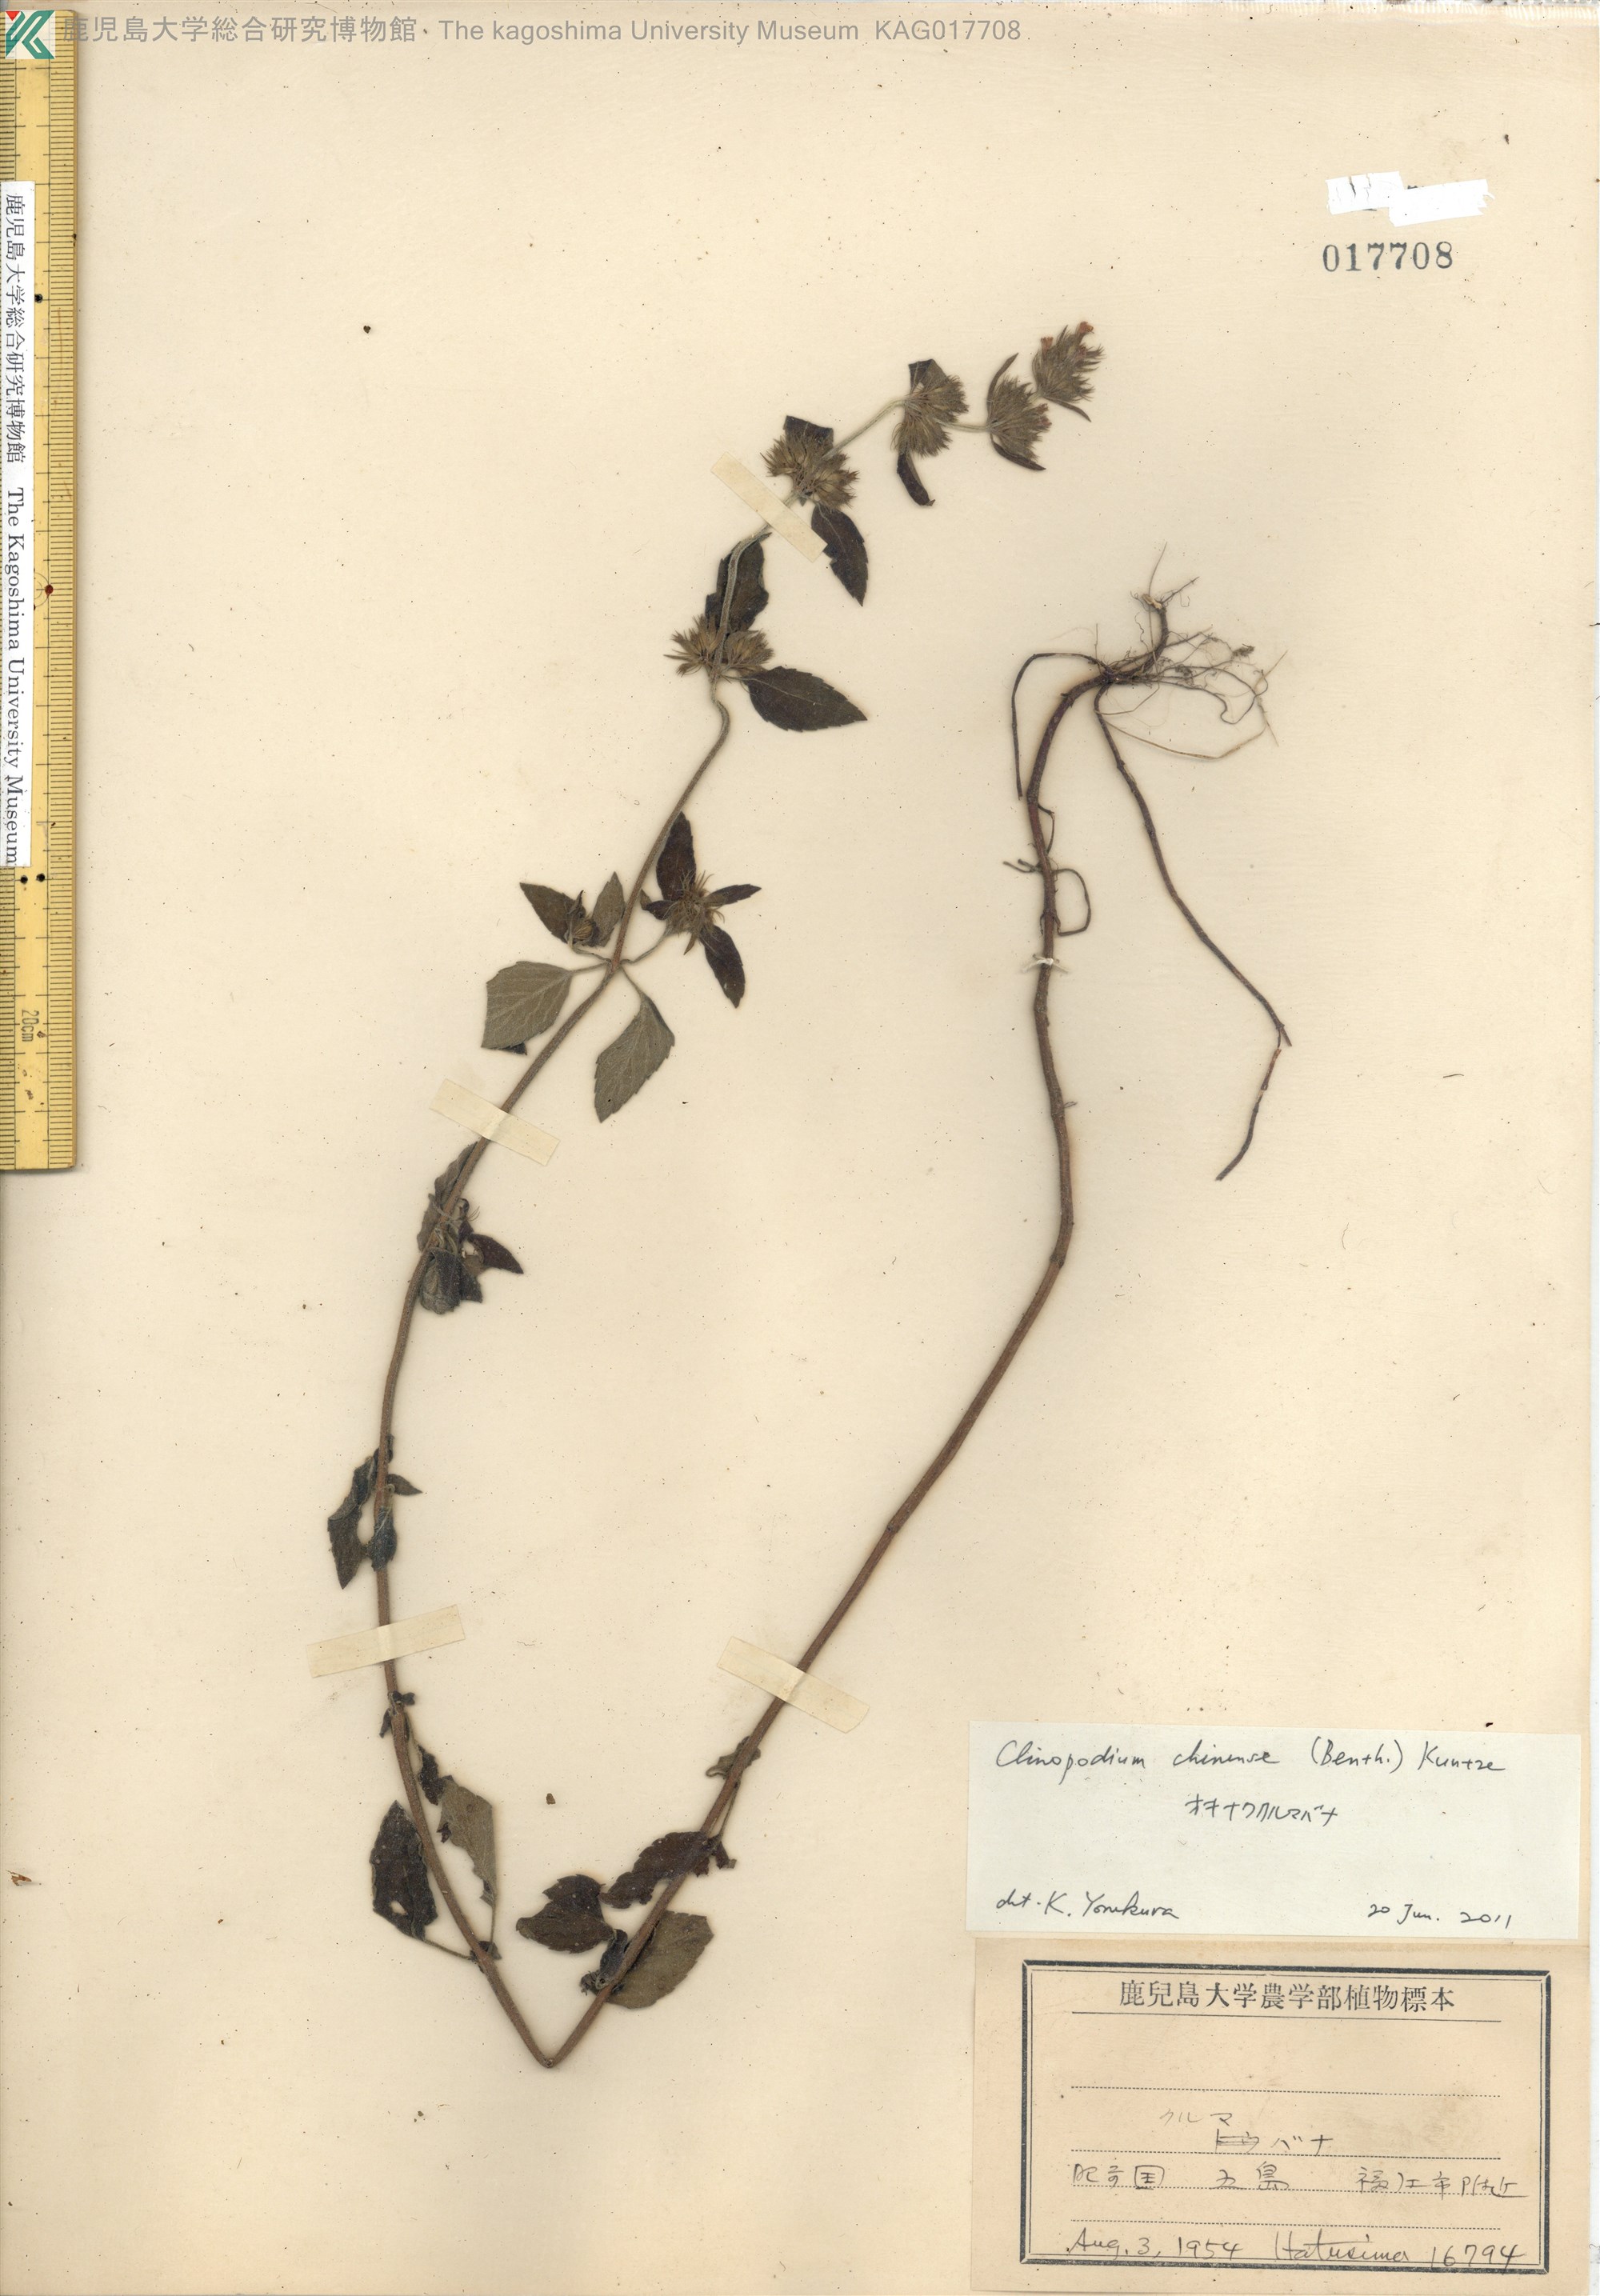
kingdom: Plantae
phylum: Tracheophyta
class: Magnoliopsida
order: Lamiales
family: Lamiaceae
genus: Clinopodium
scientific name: Clinopodium chinense
